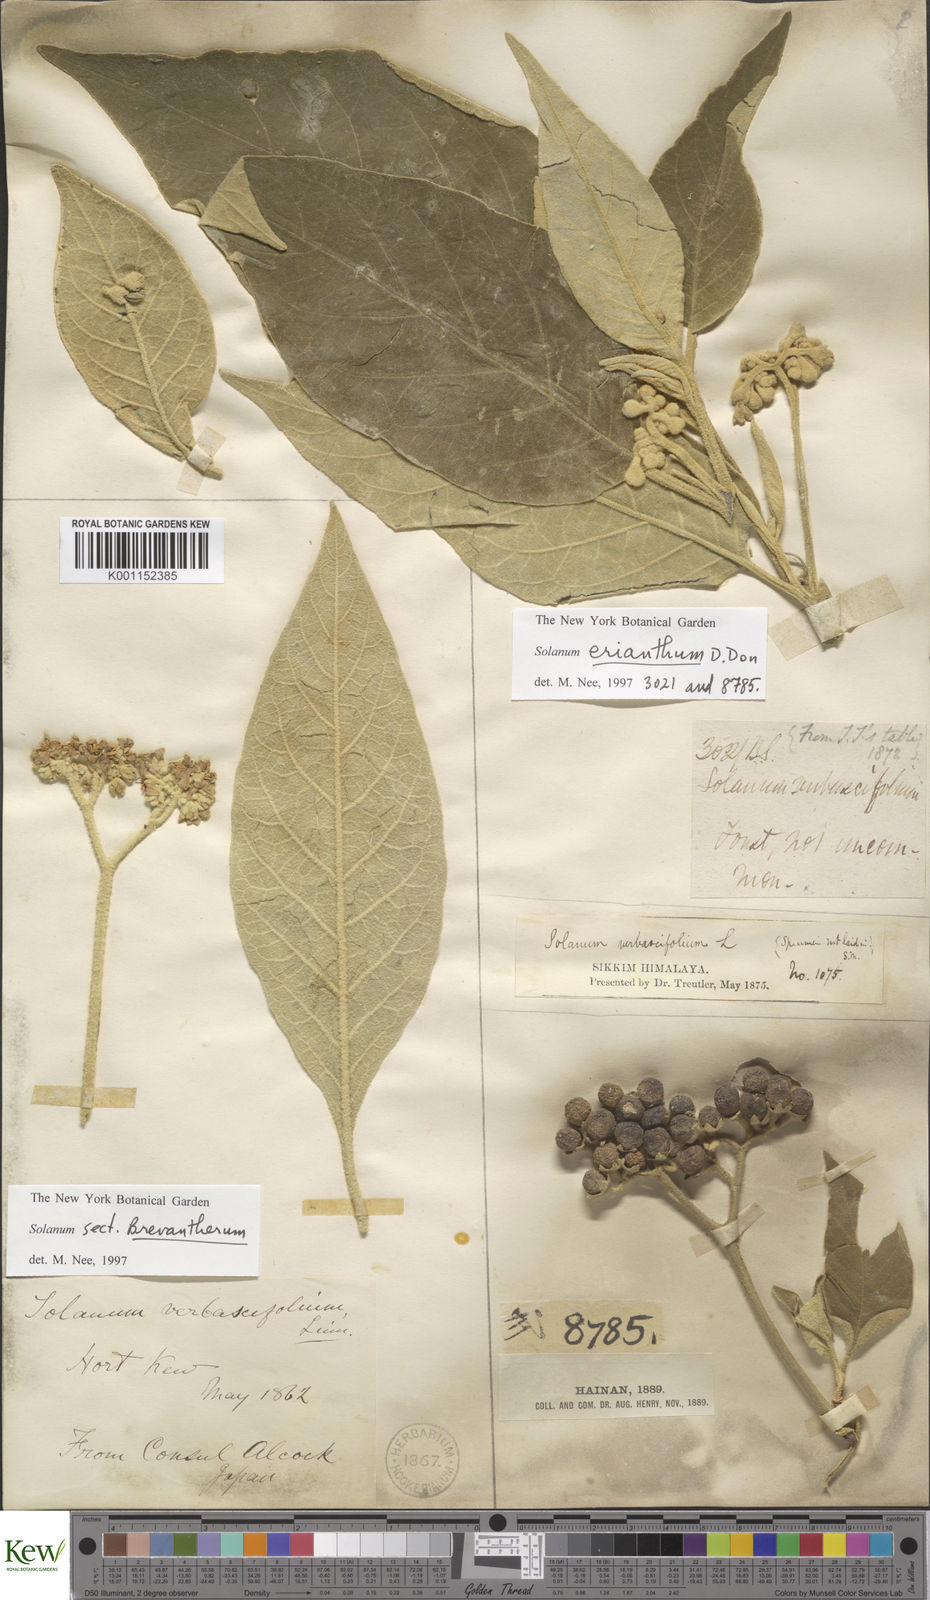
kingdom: Plantae
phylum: Tracheophyta
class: Magnoliopsida
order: Solanales
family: Solanaceae
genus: Solanum
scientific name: Solanum donianum
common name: Mullein nightshade
